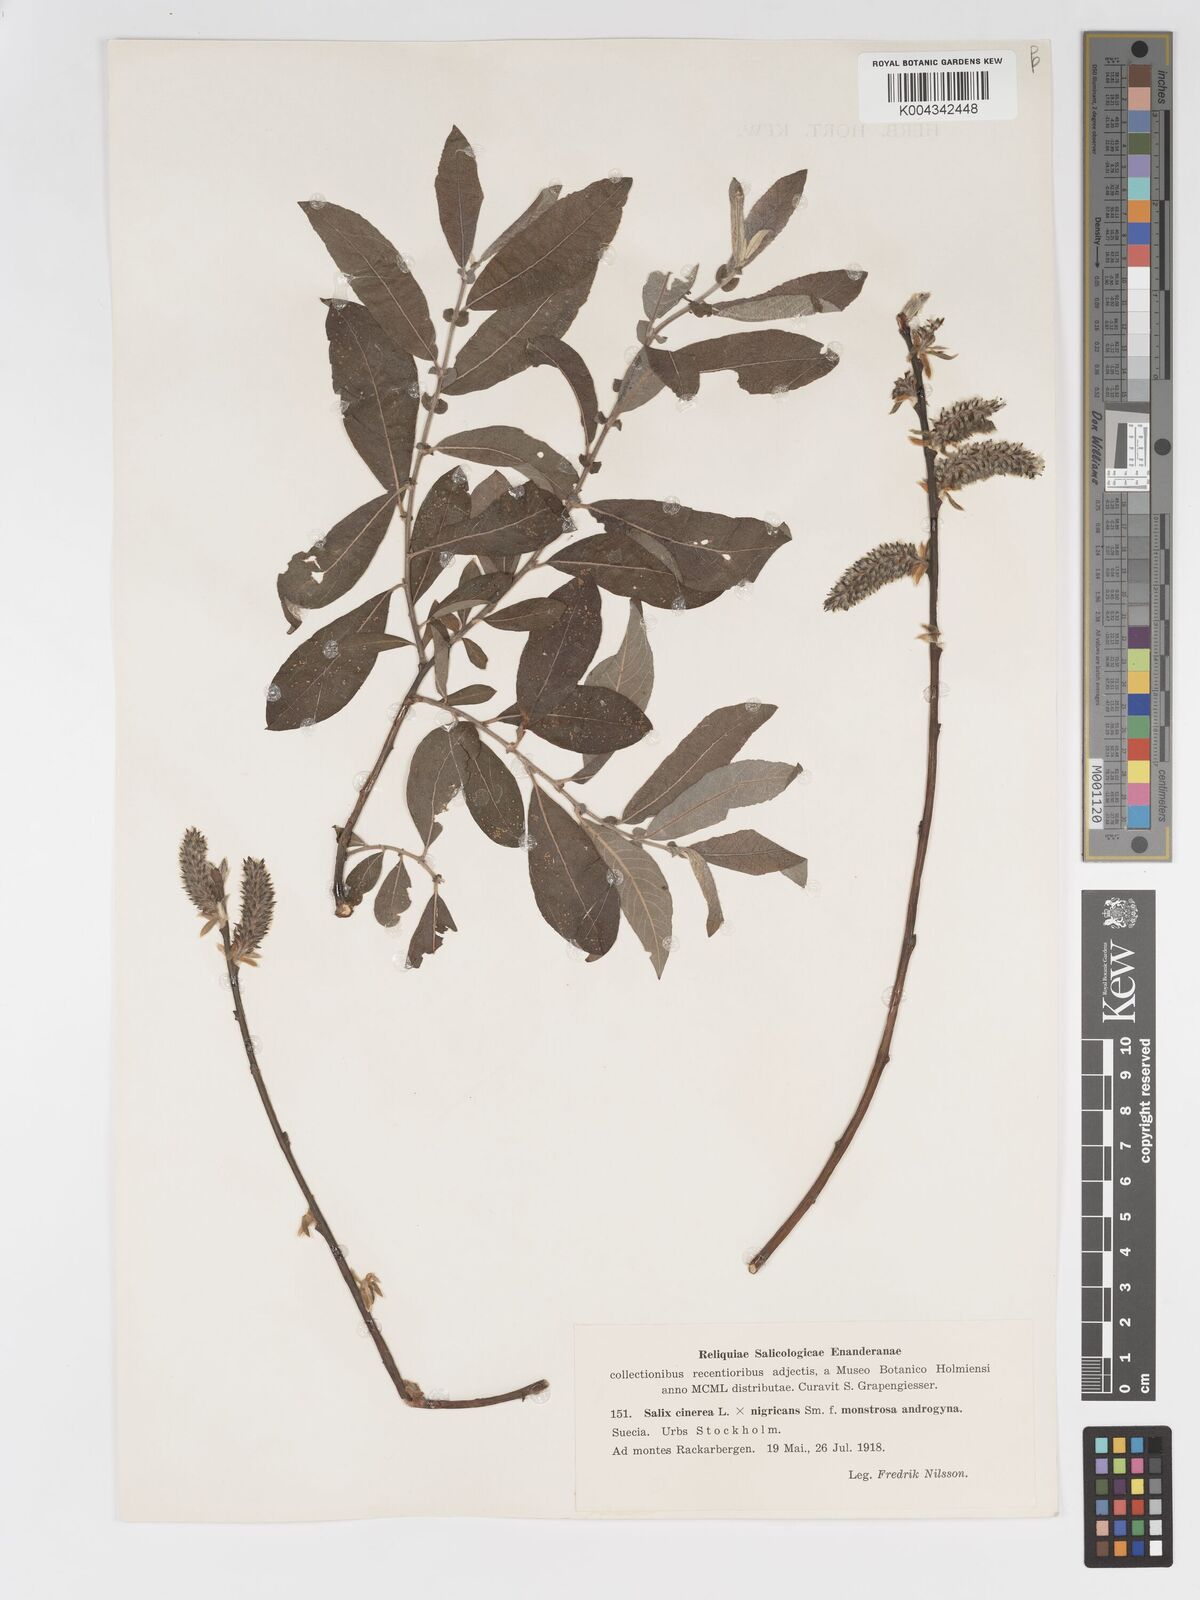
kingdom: Plantae
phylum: Tracheophyta
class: Magnoliopsida
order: Malpighiales
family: Salicaceae
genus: Salix
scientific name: Salix
